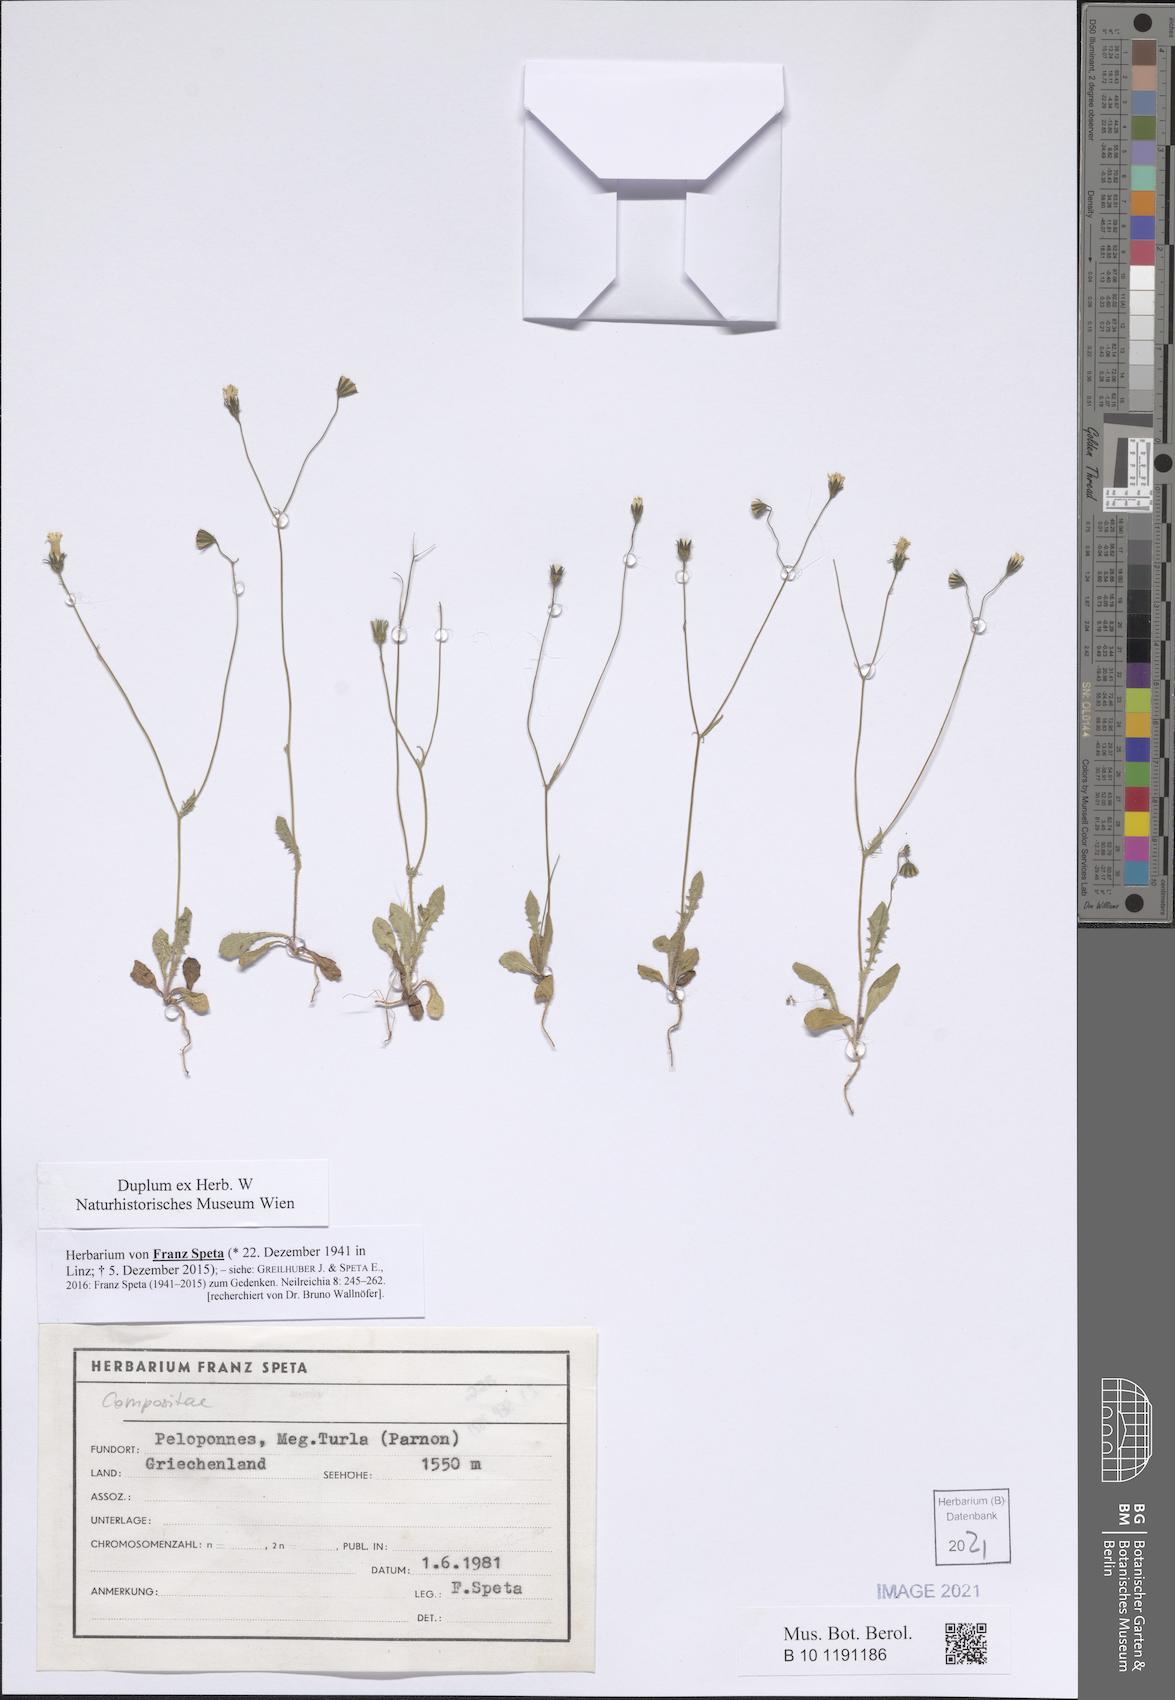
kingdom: Plantae
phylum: Tracheophyta
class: Magnoliopsida
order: Asterales
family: Asteraceae
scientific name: Asteraceae
